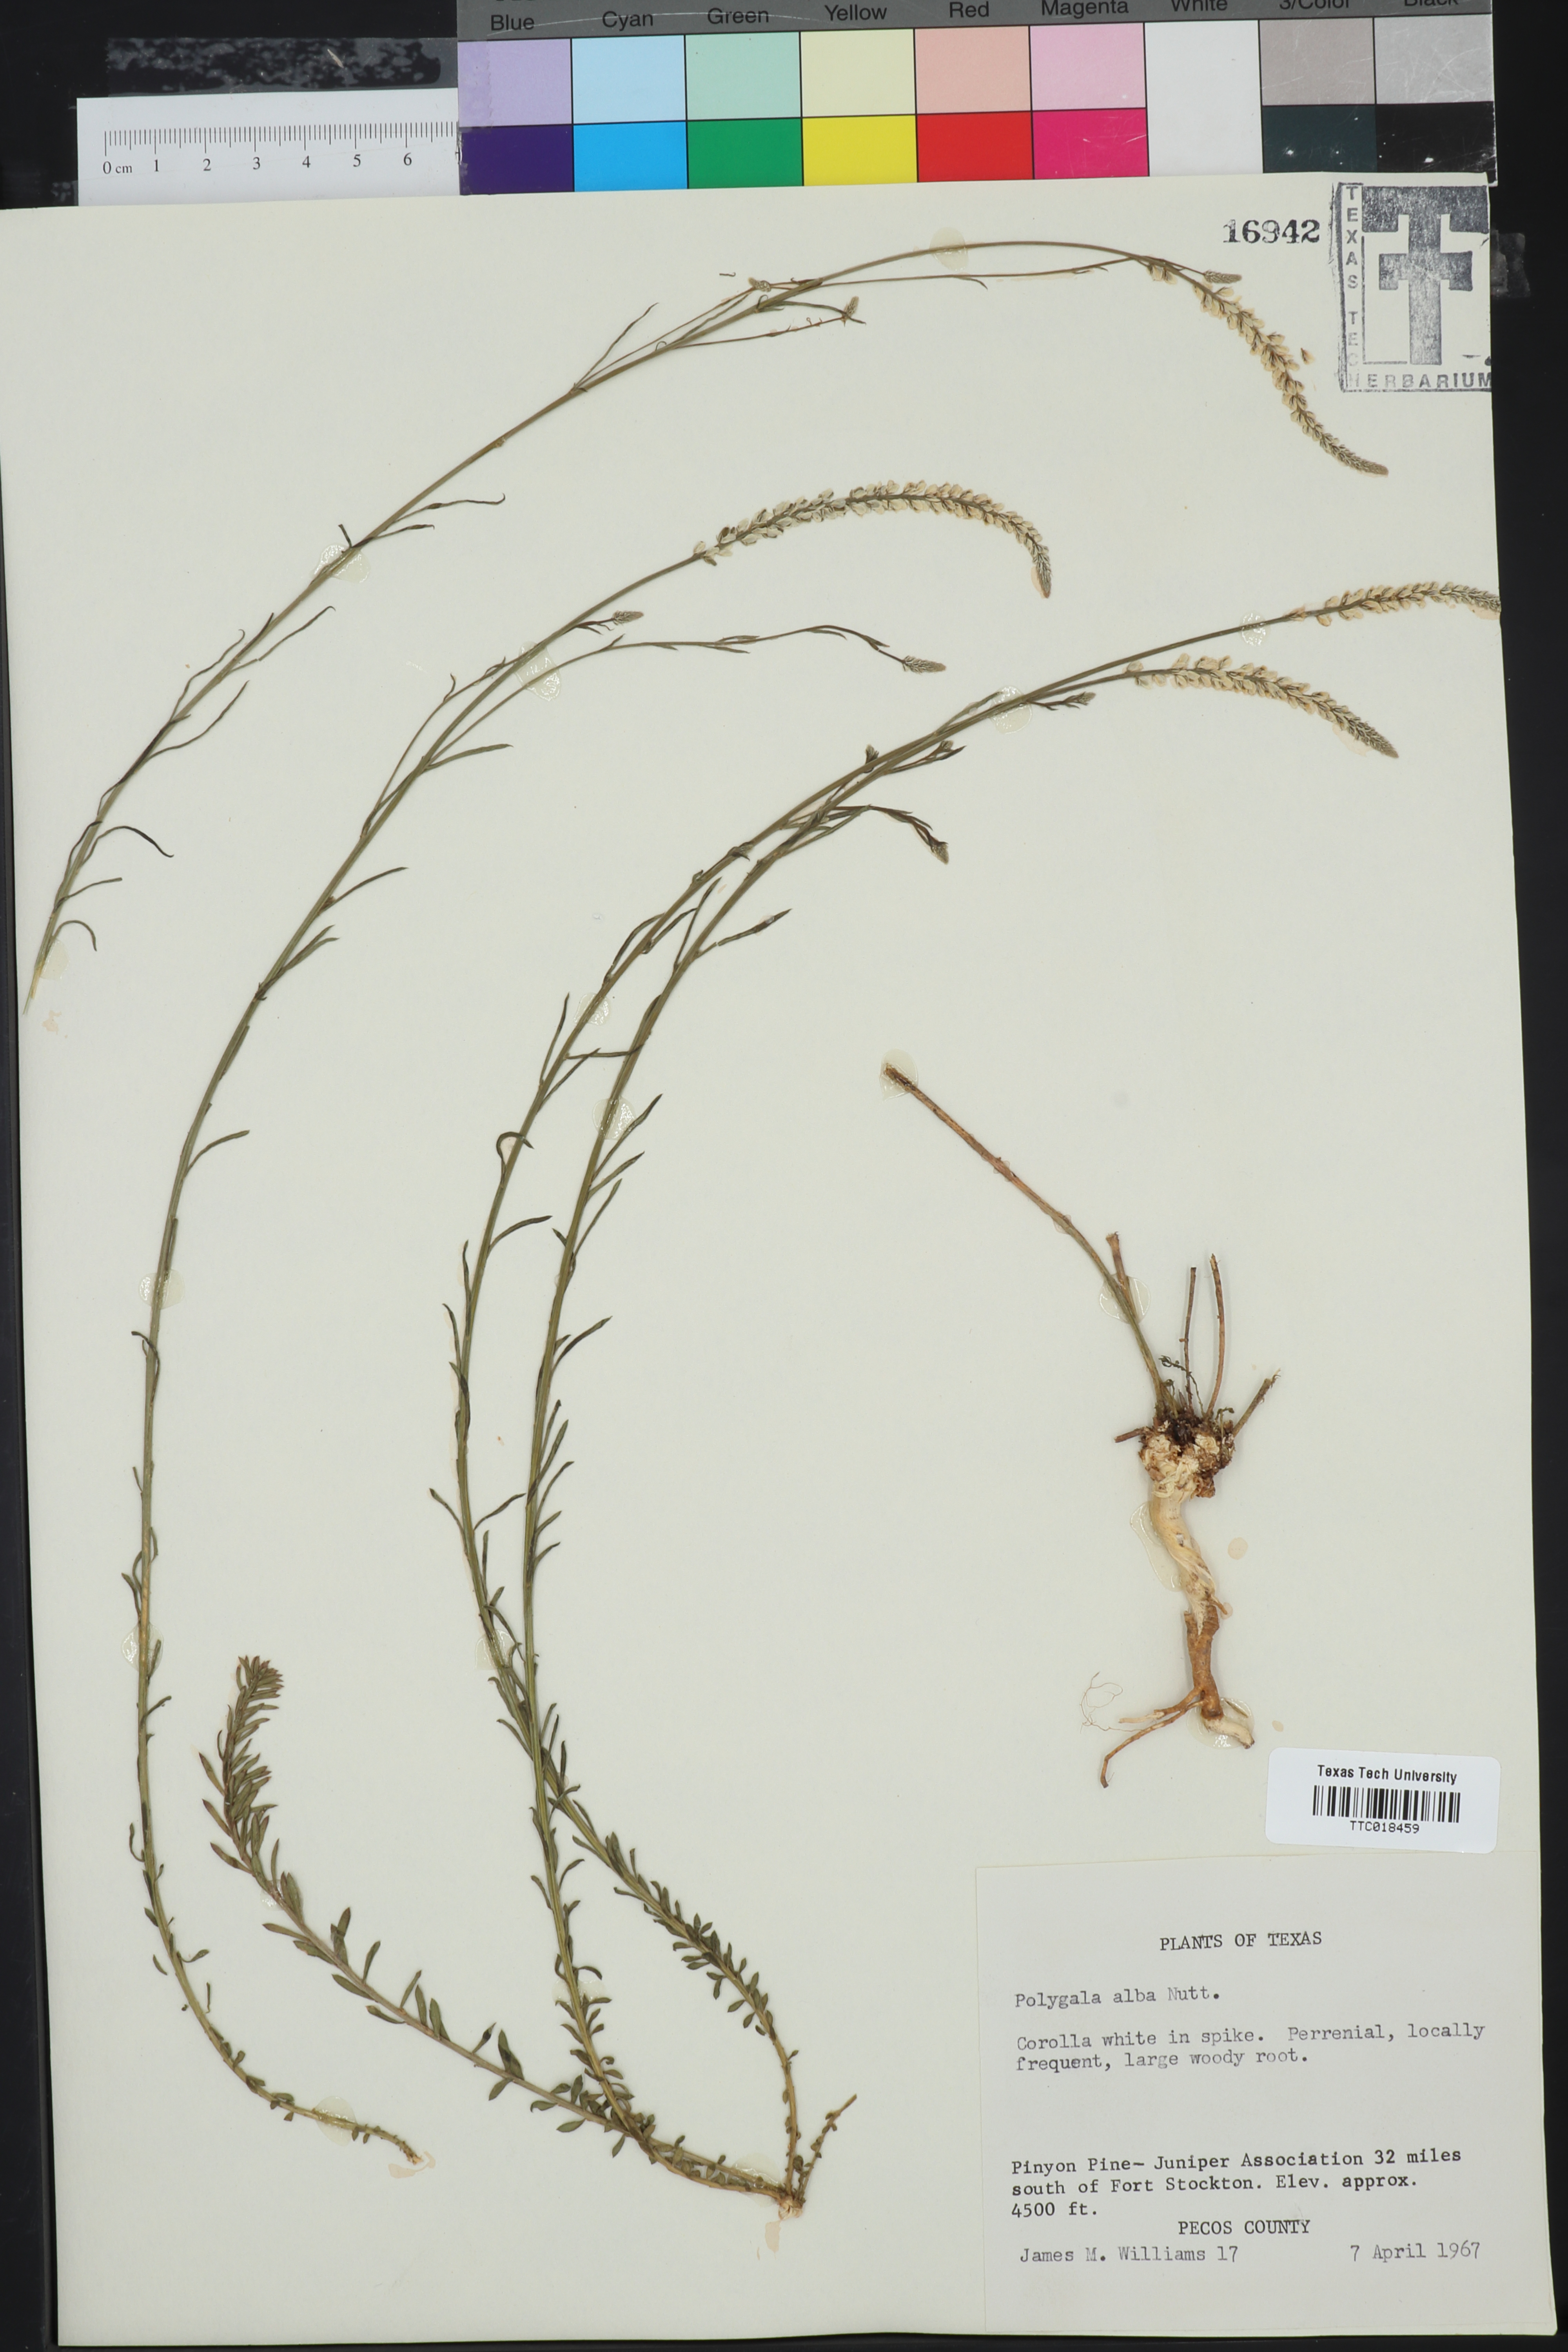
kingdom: Plantae
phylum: Tracheophyta
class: Magnoliopsida
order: Fabales
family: Polygalaceae
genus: Polygala
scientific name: Polygala alba
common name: White milkwort
